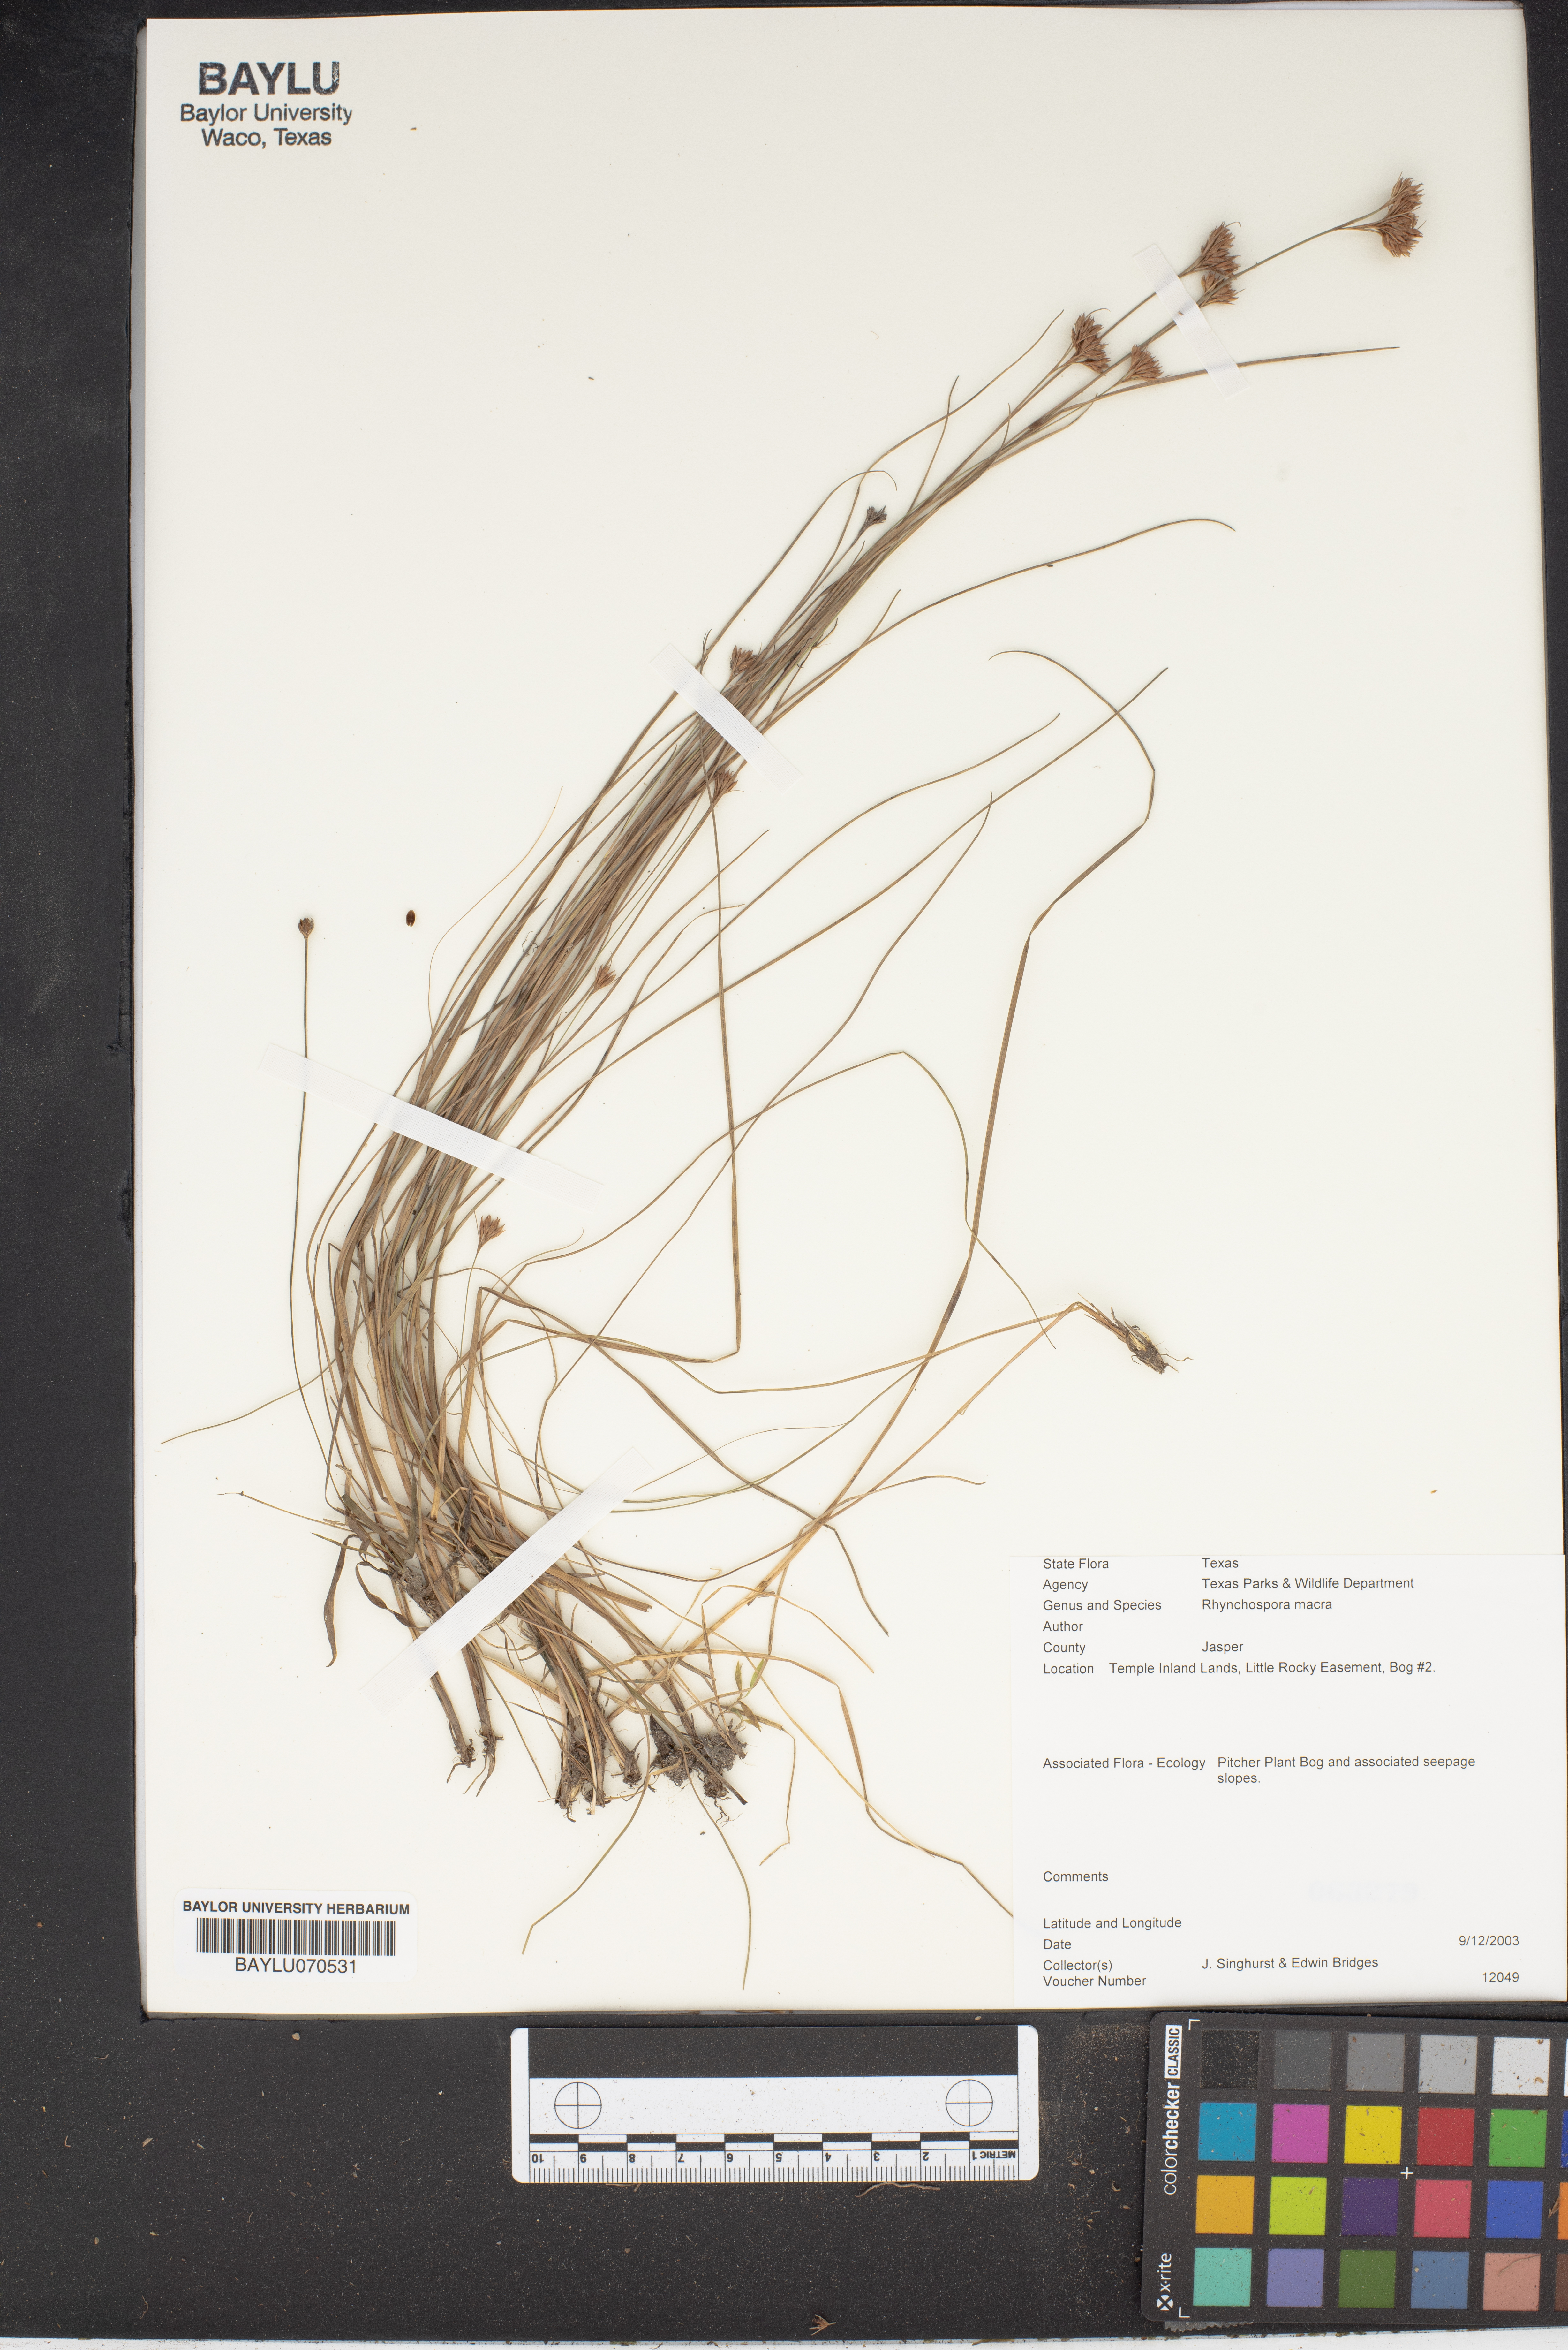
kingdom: Plantae
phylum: Tracheophyta
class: Liliopsida
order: Poales
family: Cyperaceae
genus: Rhynchospora
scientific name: Rhynchospora macra
